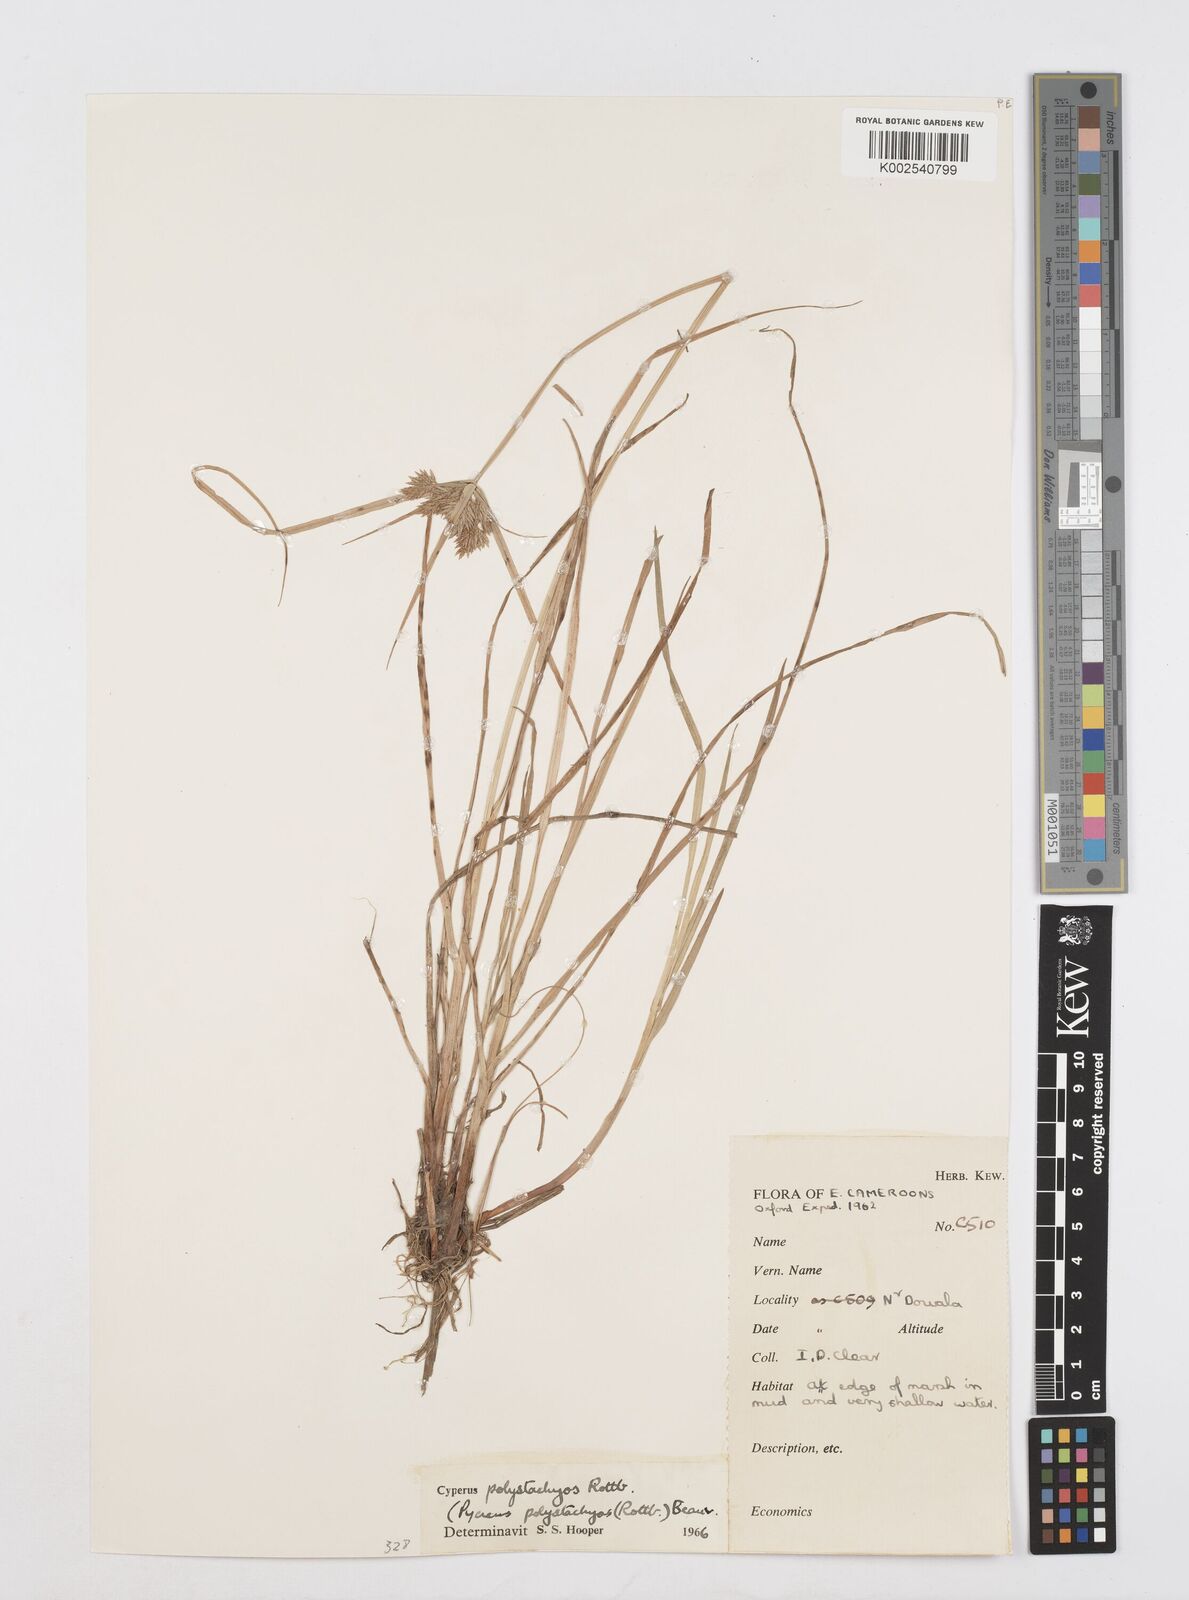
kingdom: Plantae
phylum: Tracheophyta
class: Liliopsida
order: Poales
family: Cyperaceae
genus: Cyperus
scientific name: Cyperus polystachyos
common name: Bunchy flat sedge
